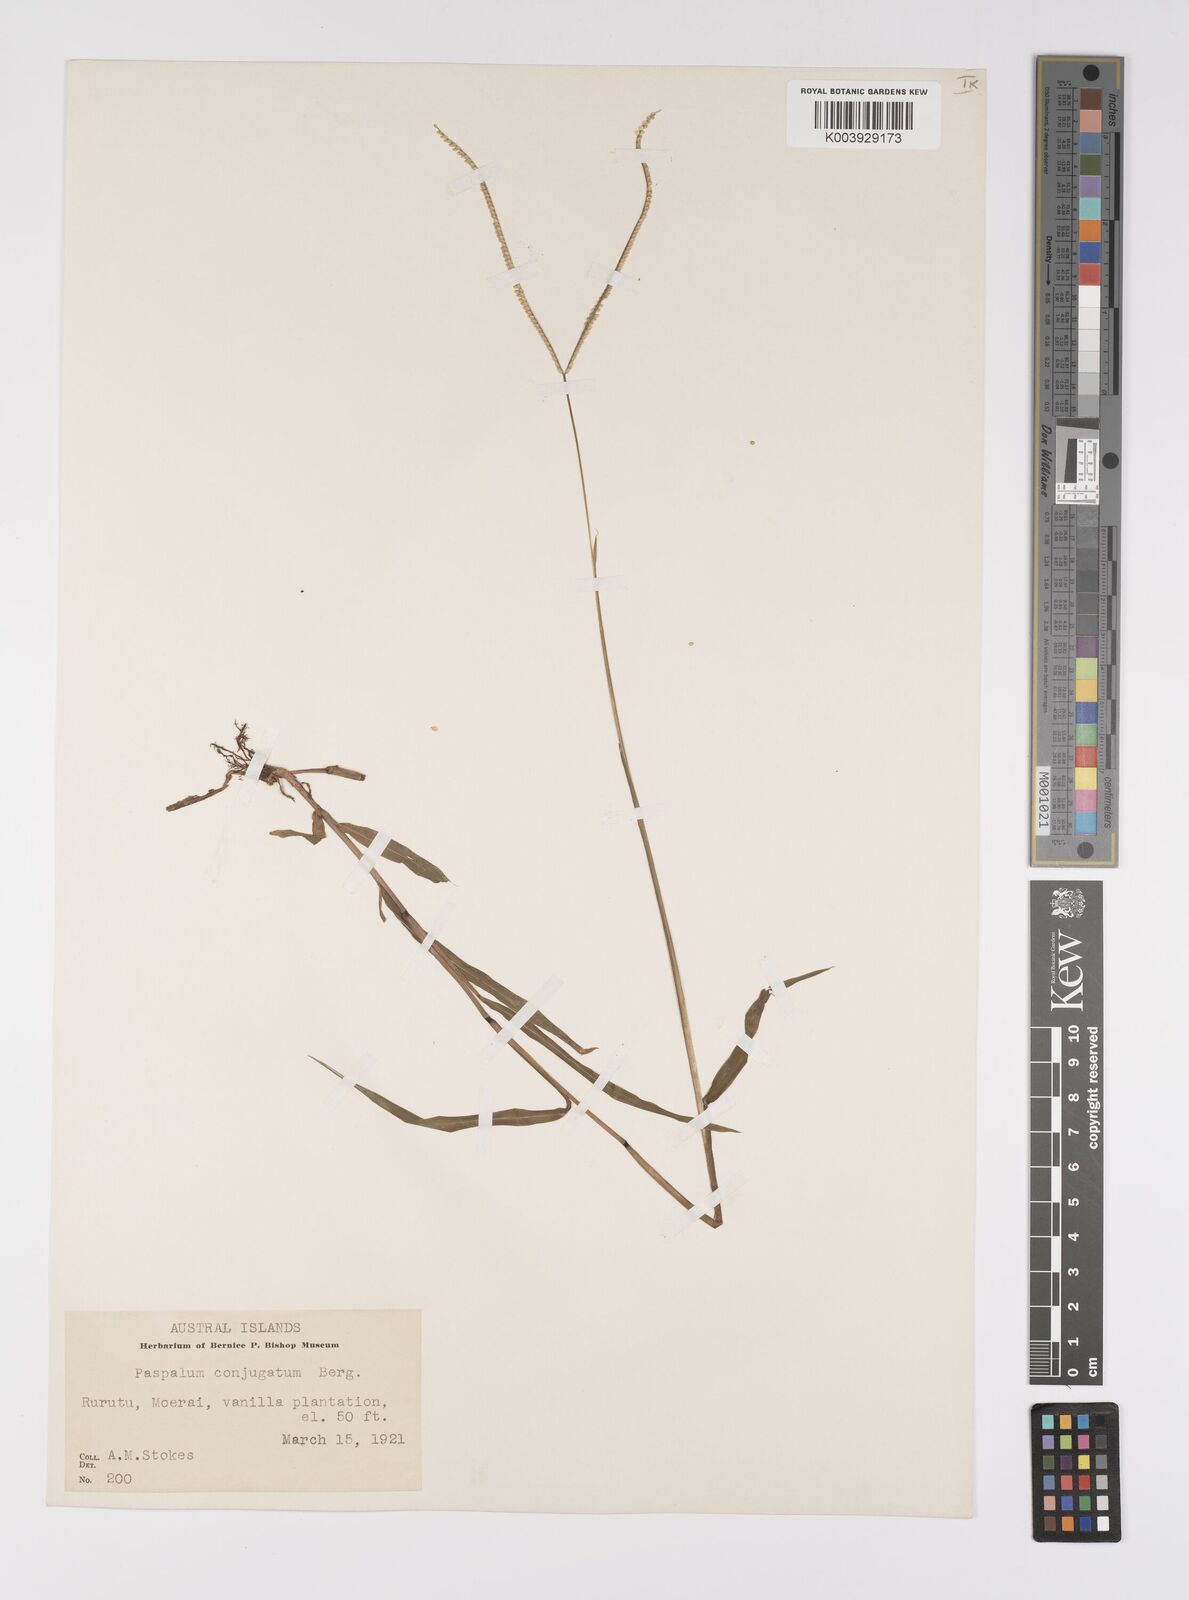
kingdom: Plantae
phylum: Tracheophyta
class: Liliopsida
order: Poales
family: Poaceae
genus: Paspalum
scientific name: Paspalum conjugatum
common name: Hilograss
